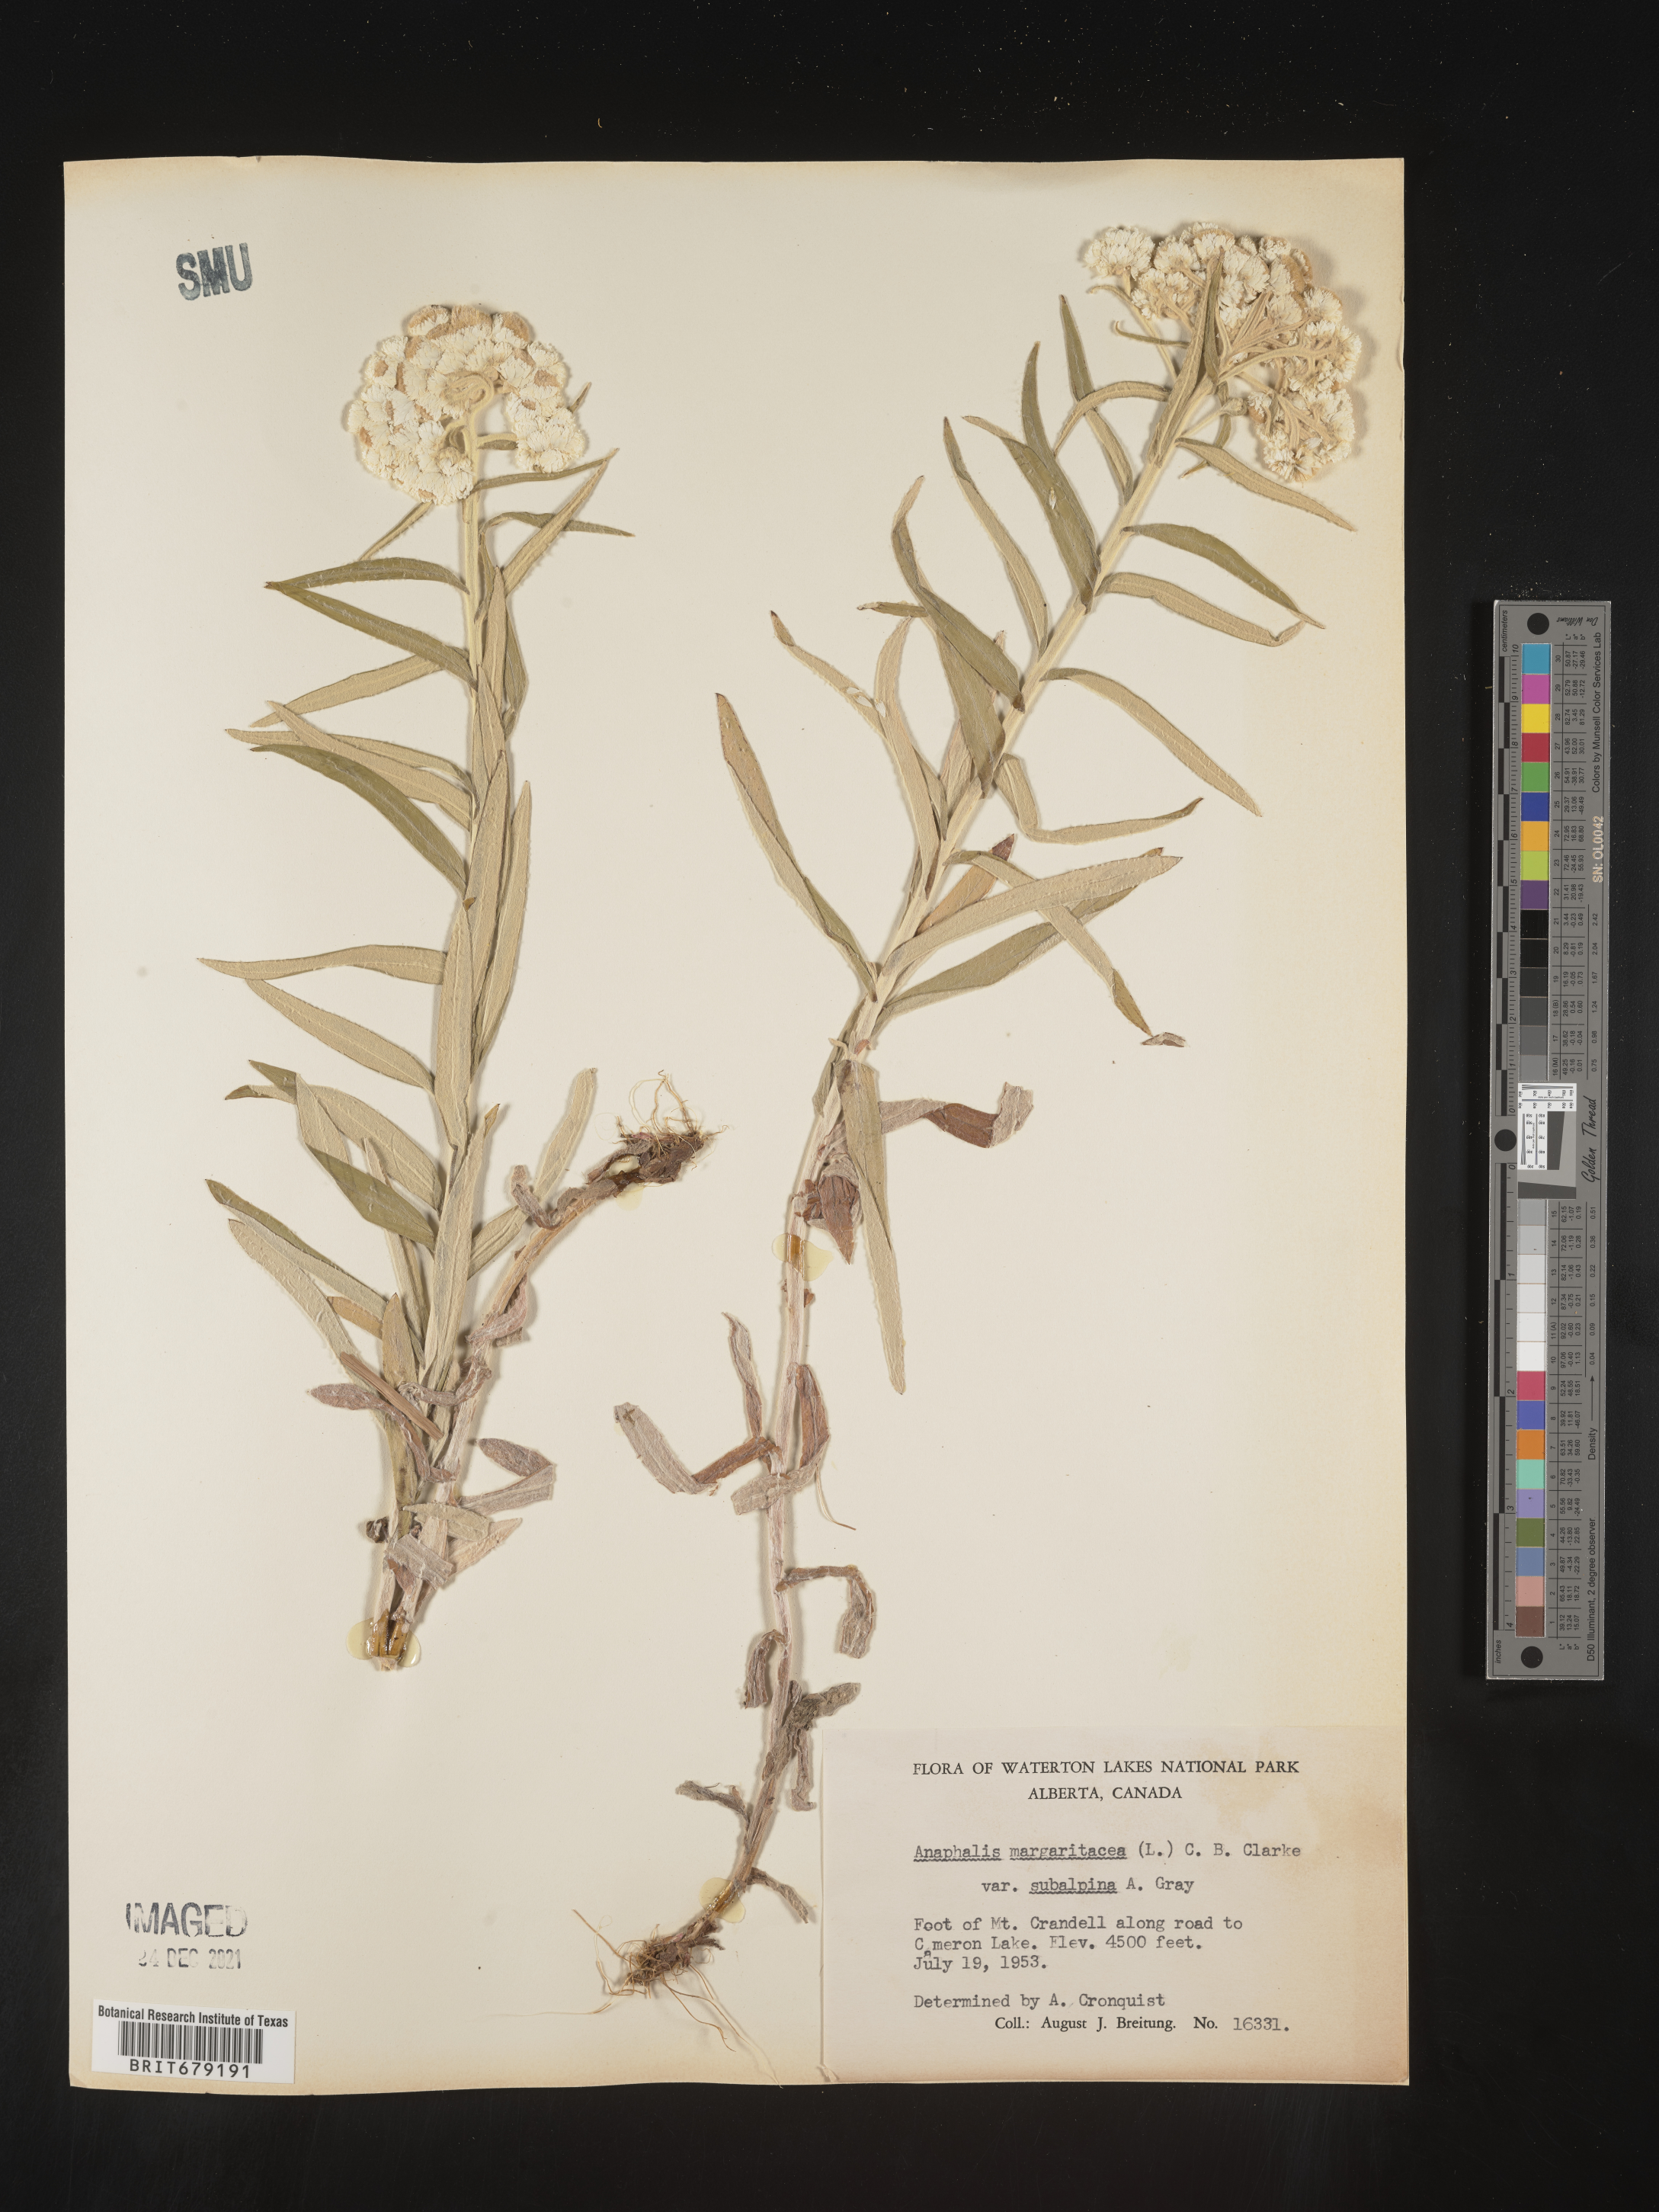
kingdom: Plantae
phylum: Tracheophyta
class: Magnoliopsida
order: Asterales
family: Asteraceae
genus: Anaphalis
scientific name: Anaphalis margaritacea
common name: Pearly everlasting
